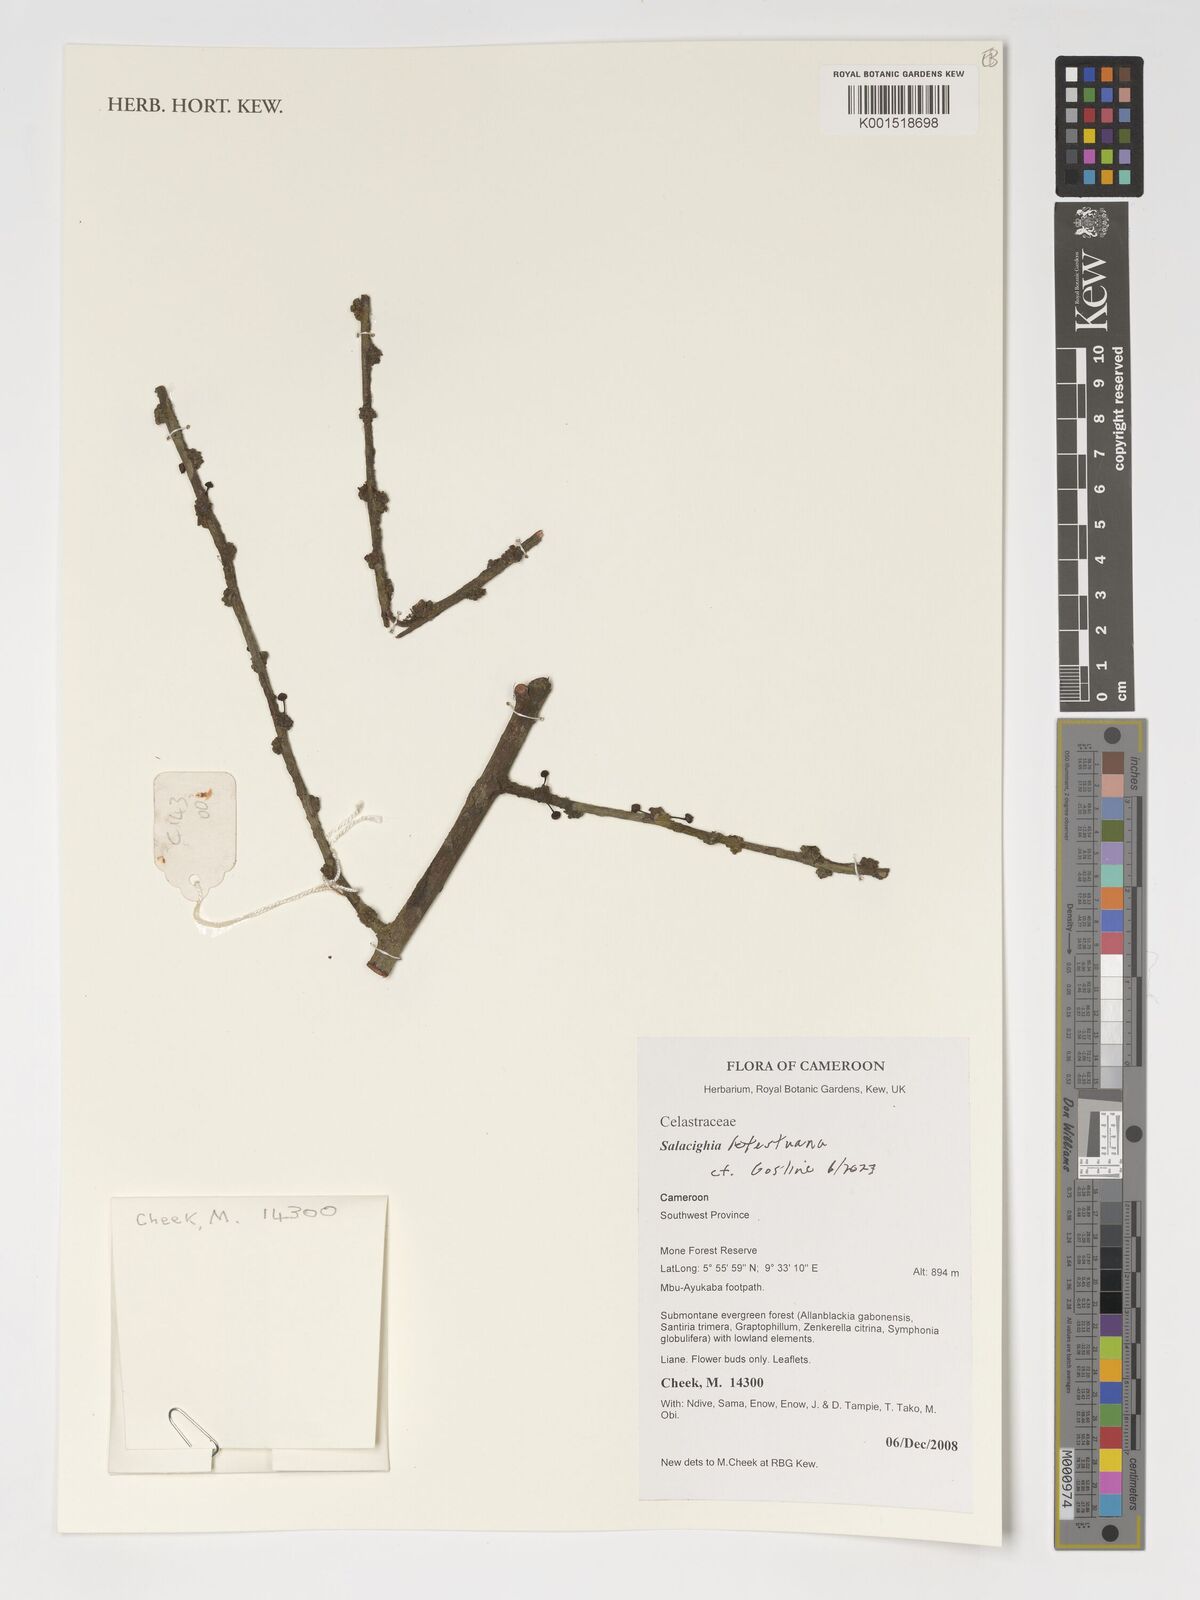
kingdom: Plantae
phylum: Tracheophyta
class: Magnoliopsida
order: Celastrales
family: Celastraceae
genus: Salacighia
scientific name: Salacighia letestuana
